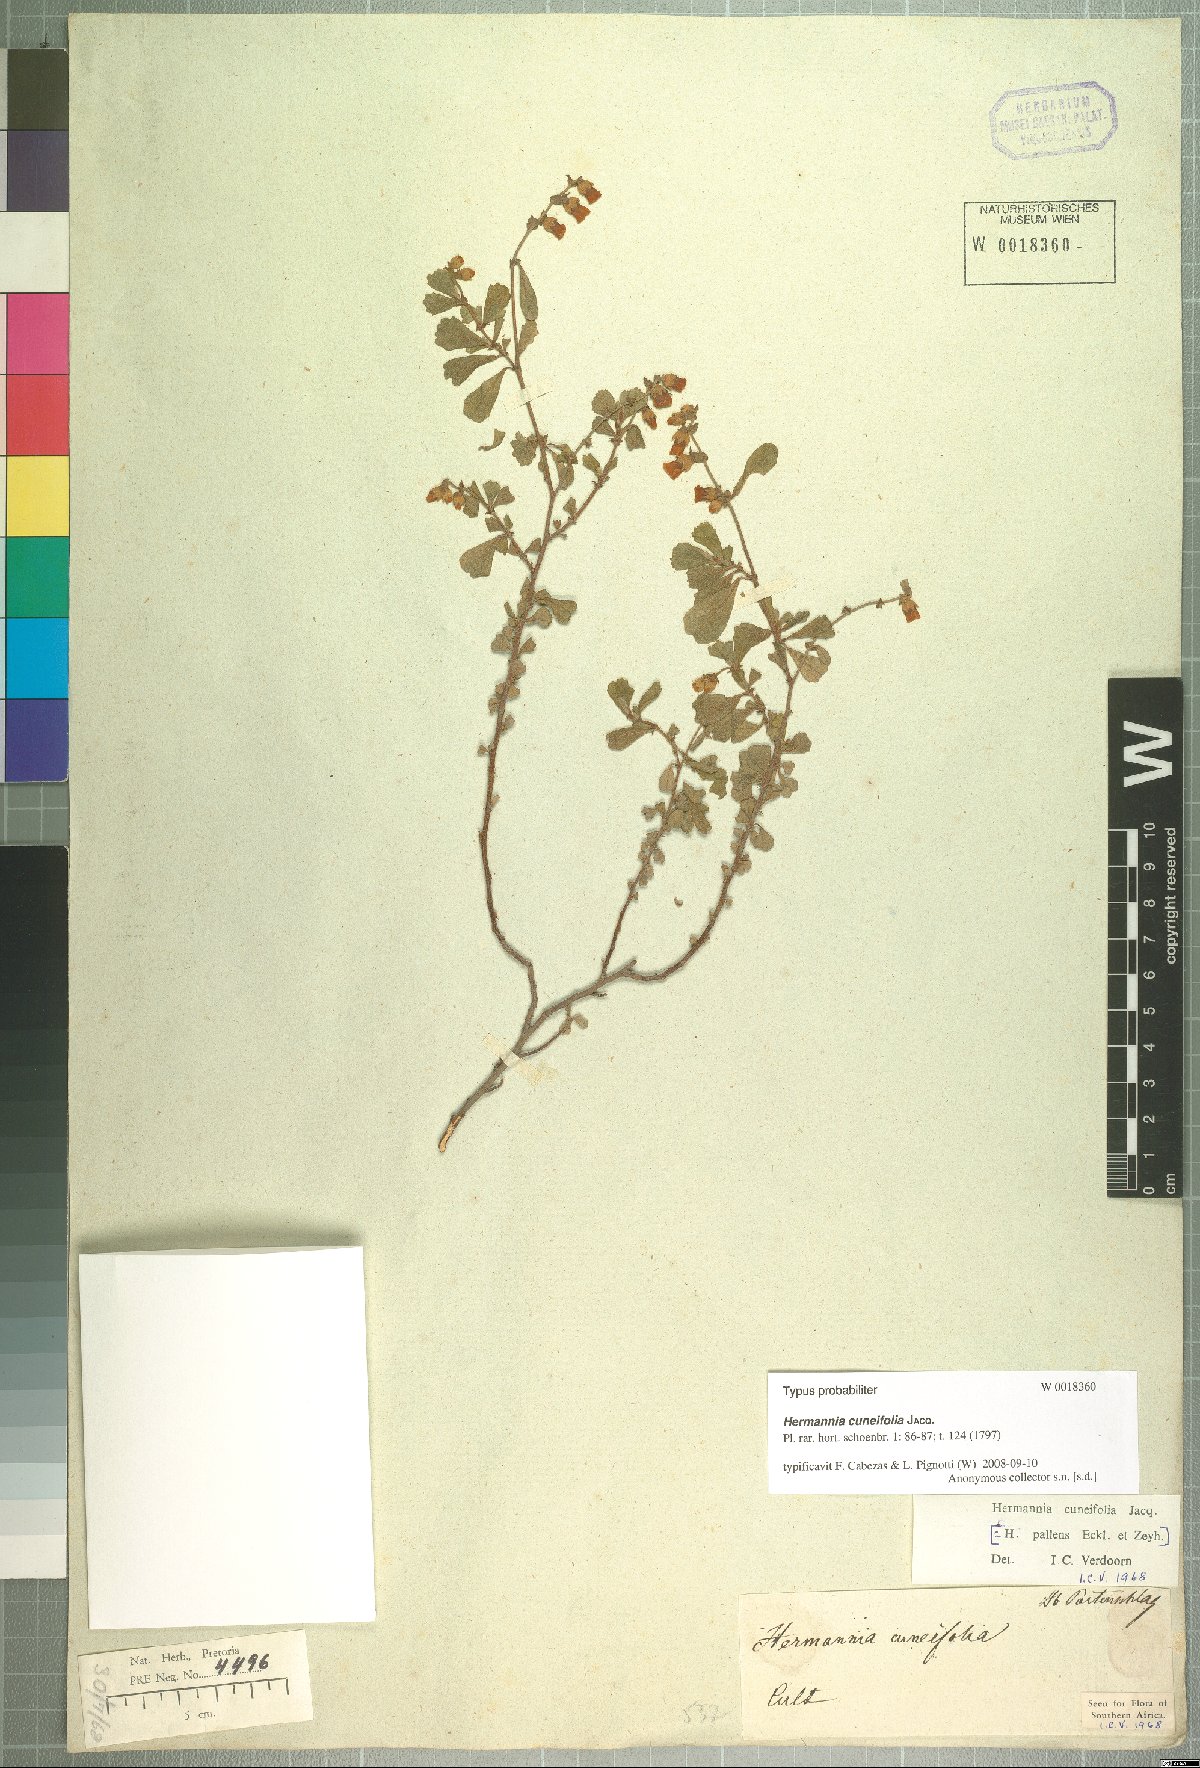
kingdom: Plantae
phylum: Tracheophyta
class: Magnoliopsida
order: Malvales
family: Malvaceae
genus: Hermannia
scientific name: Hermannia cuneifolia
